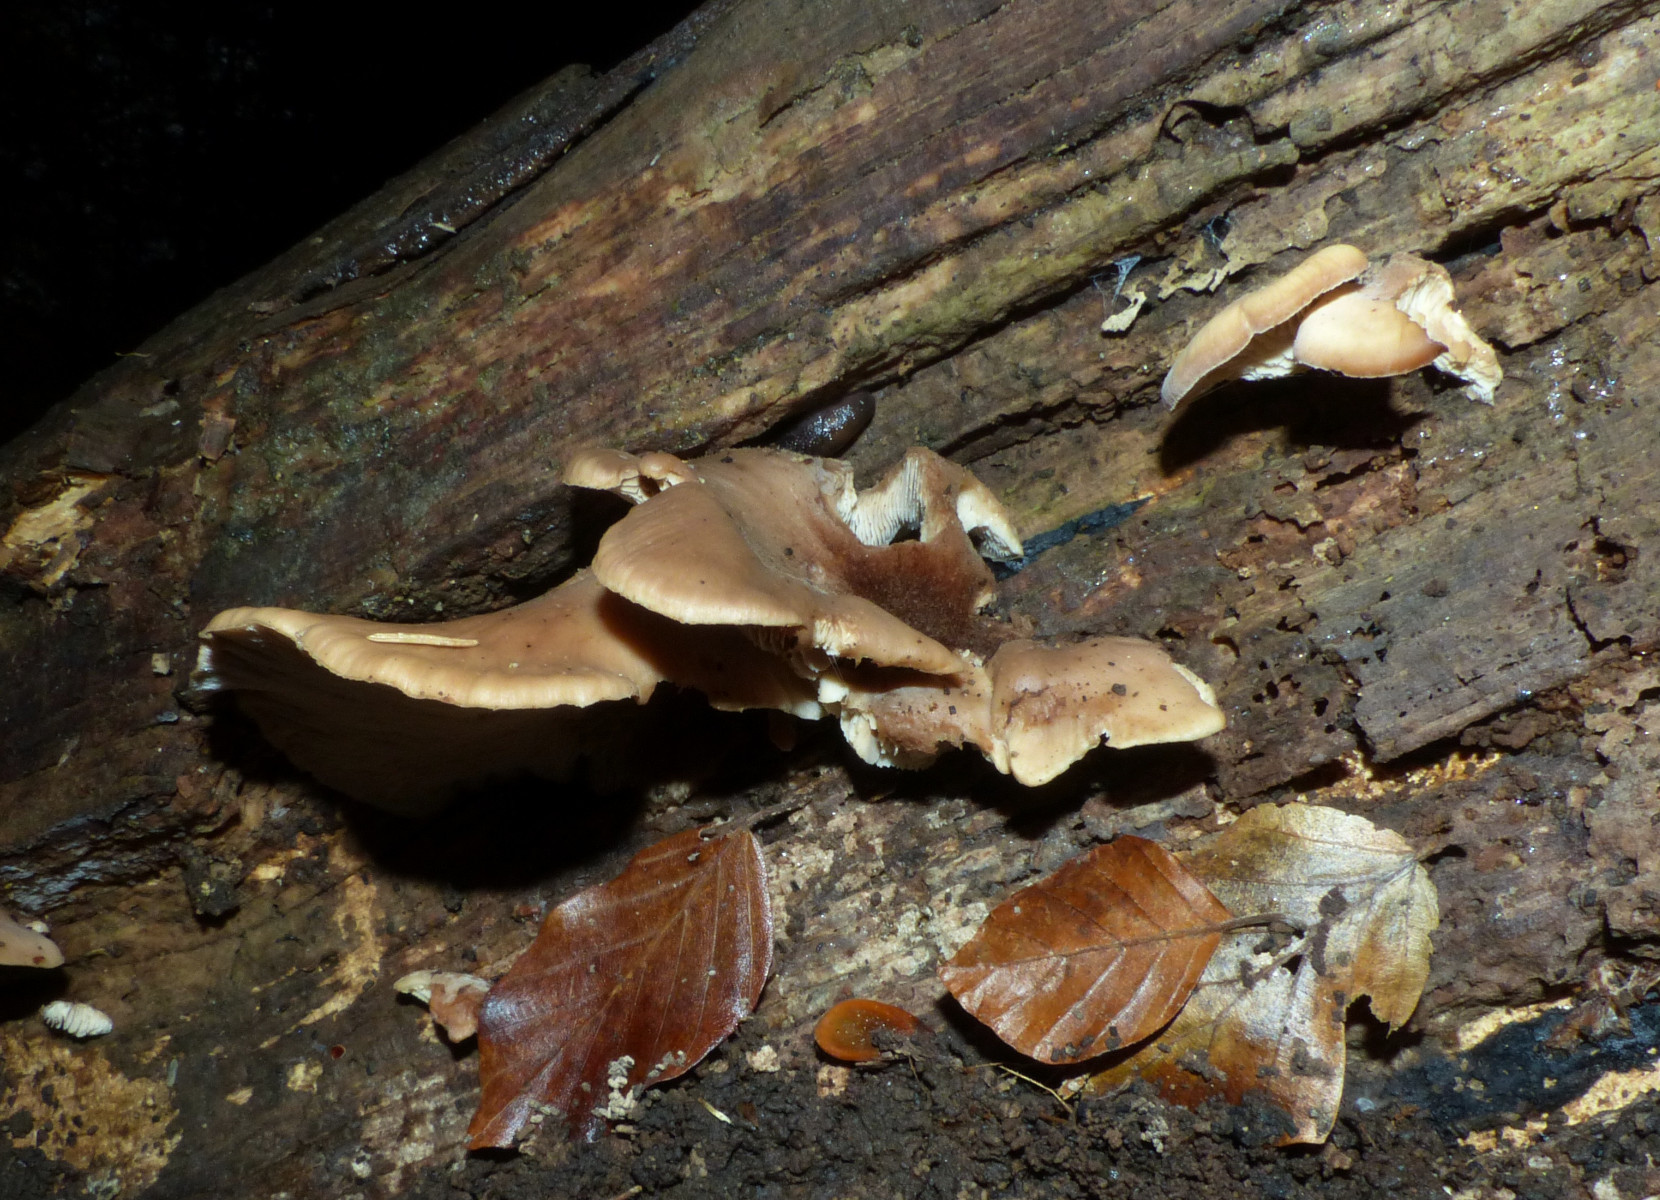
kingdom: Fungi
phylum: Basidiomycota
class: Agaricomycetes
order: Russulales
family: Auriscalpiaceae
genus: Lentinellus
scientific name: Lentinellus ursinus
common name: børstehåret savbladhat
